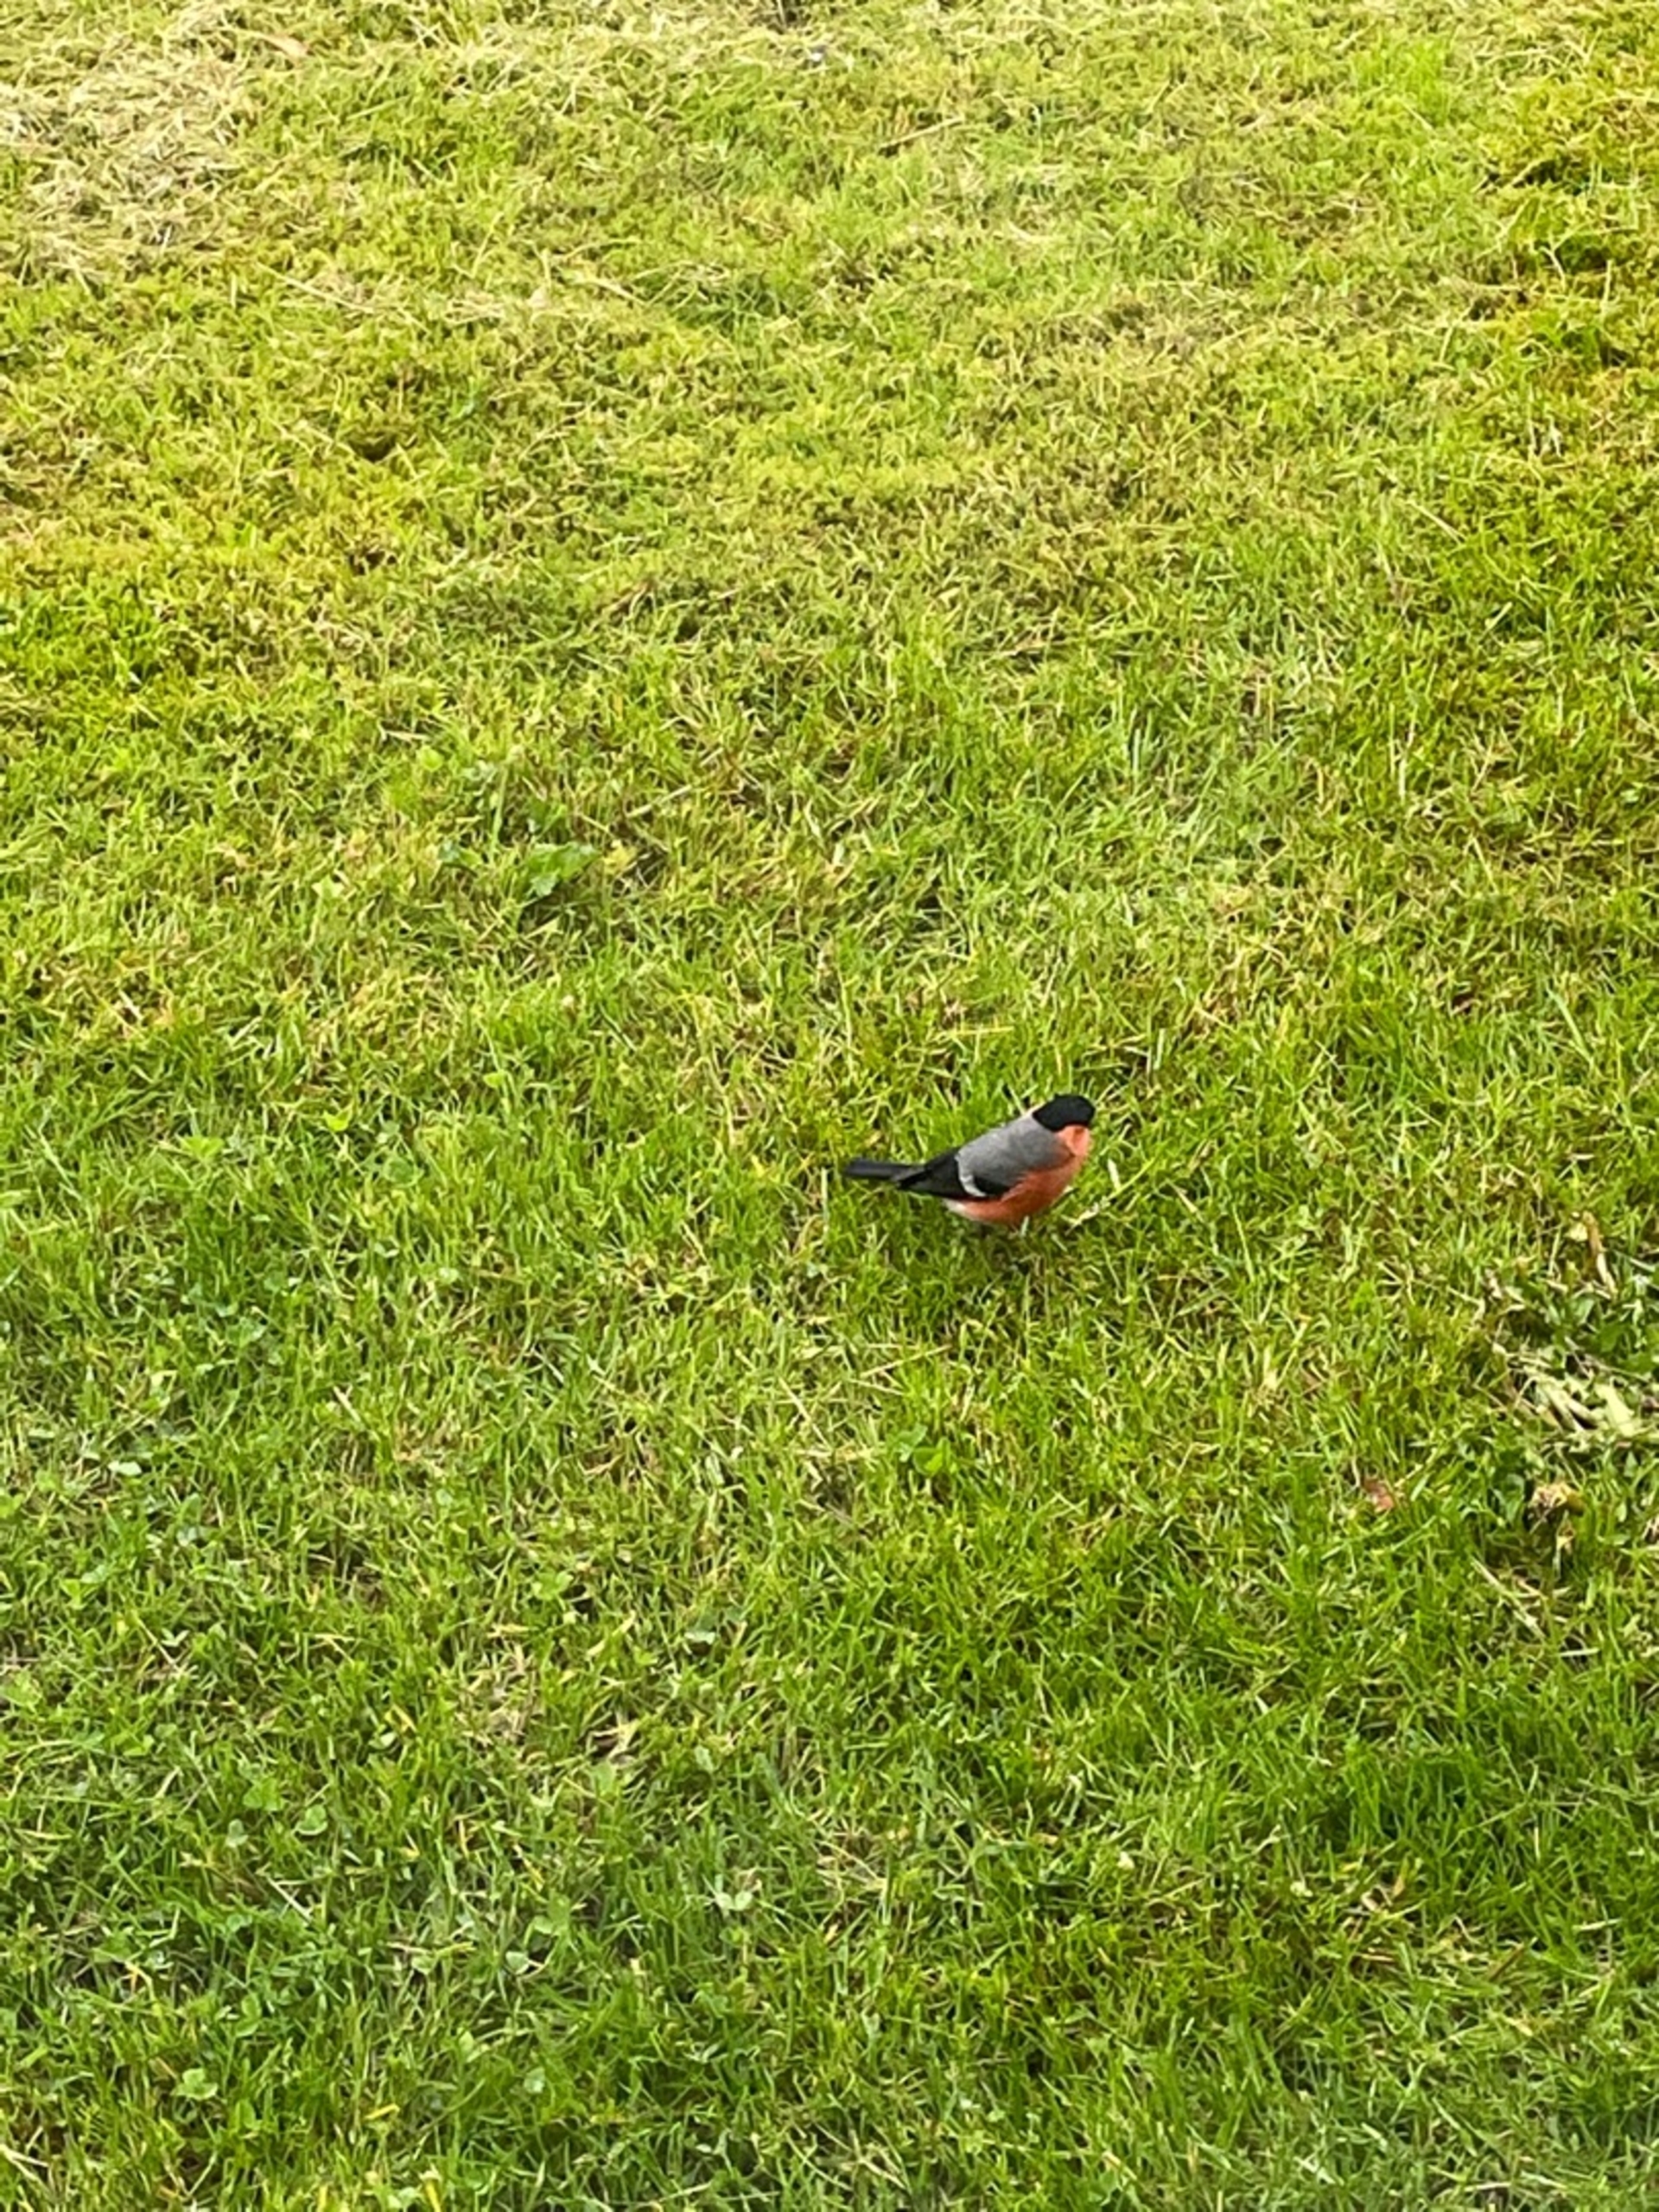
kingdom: Animalia
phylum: Chordata
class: Aves
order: Passeriformes
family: Fringillidae
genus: Pyrrhula
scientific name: Pyrrhula pyrrhula
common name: Dompap
